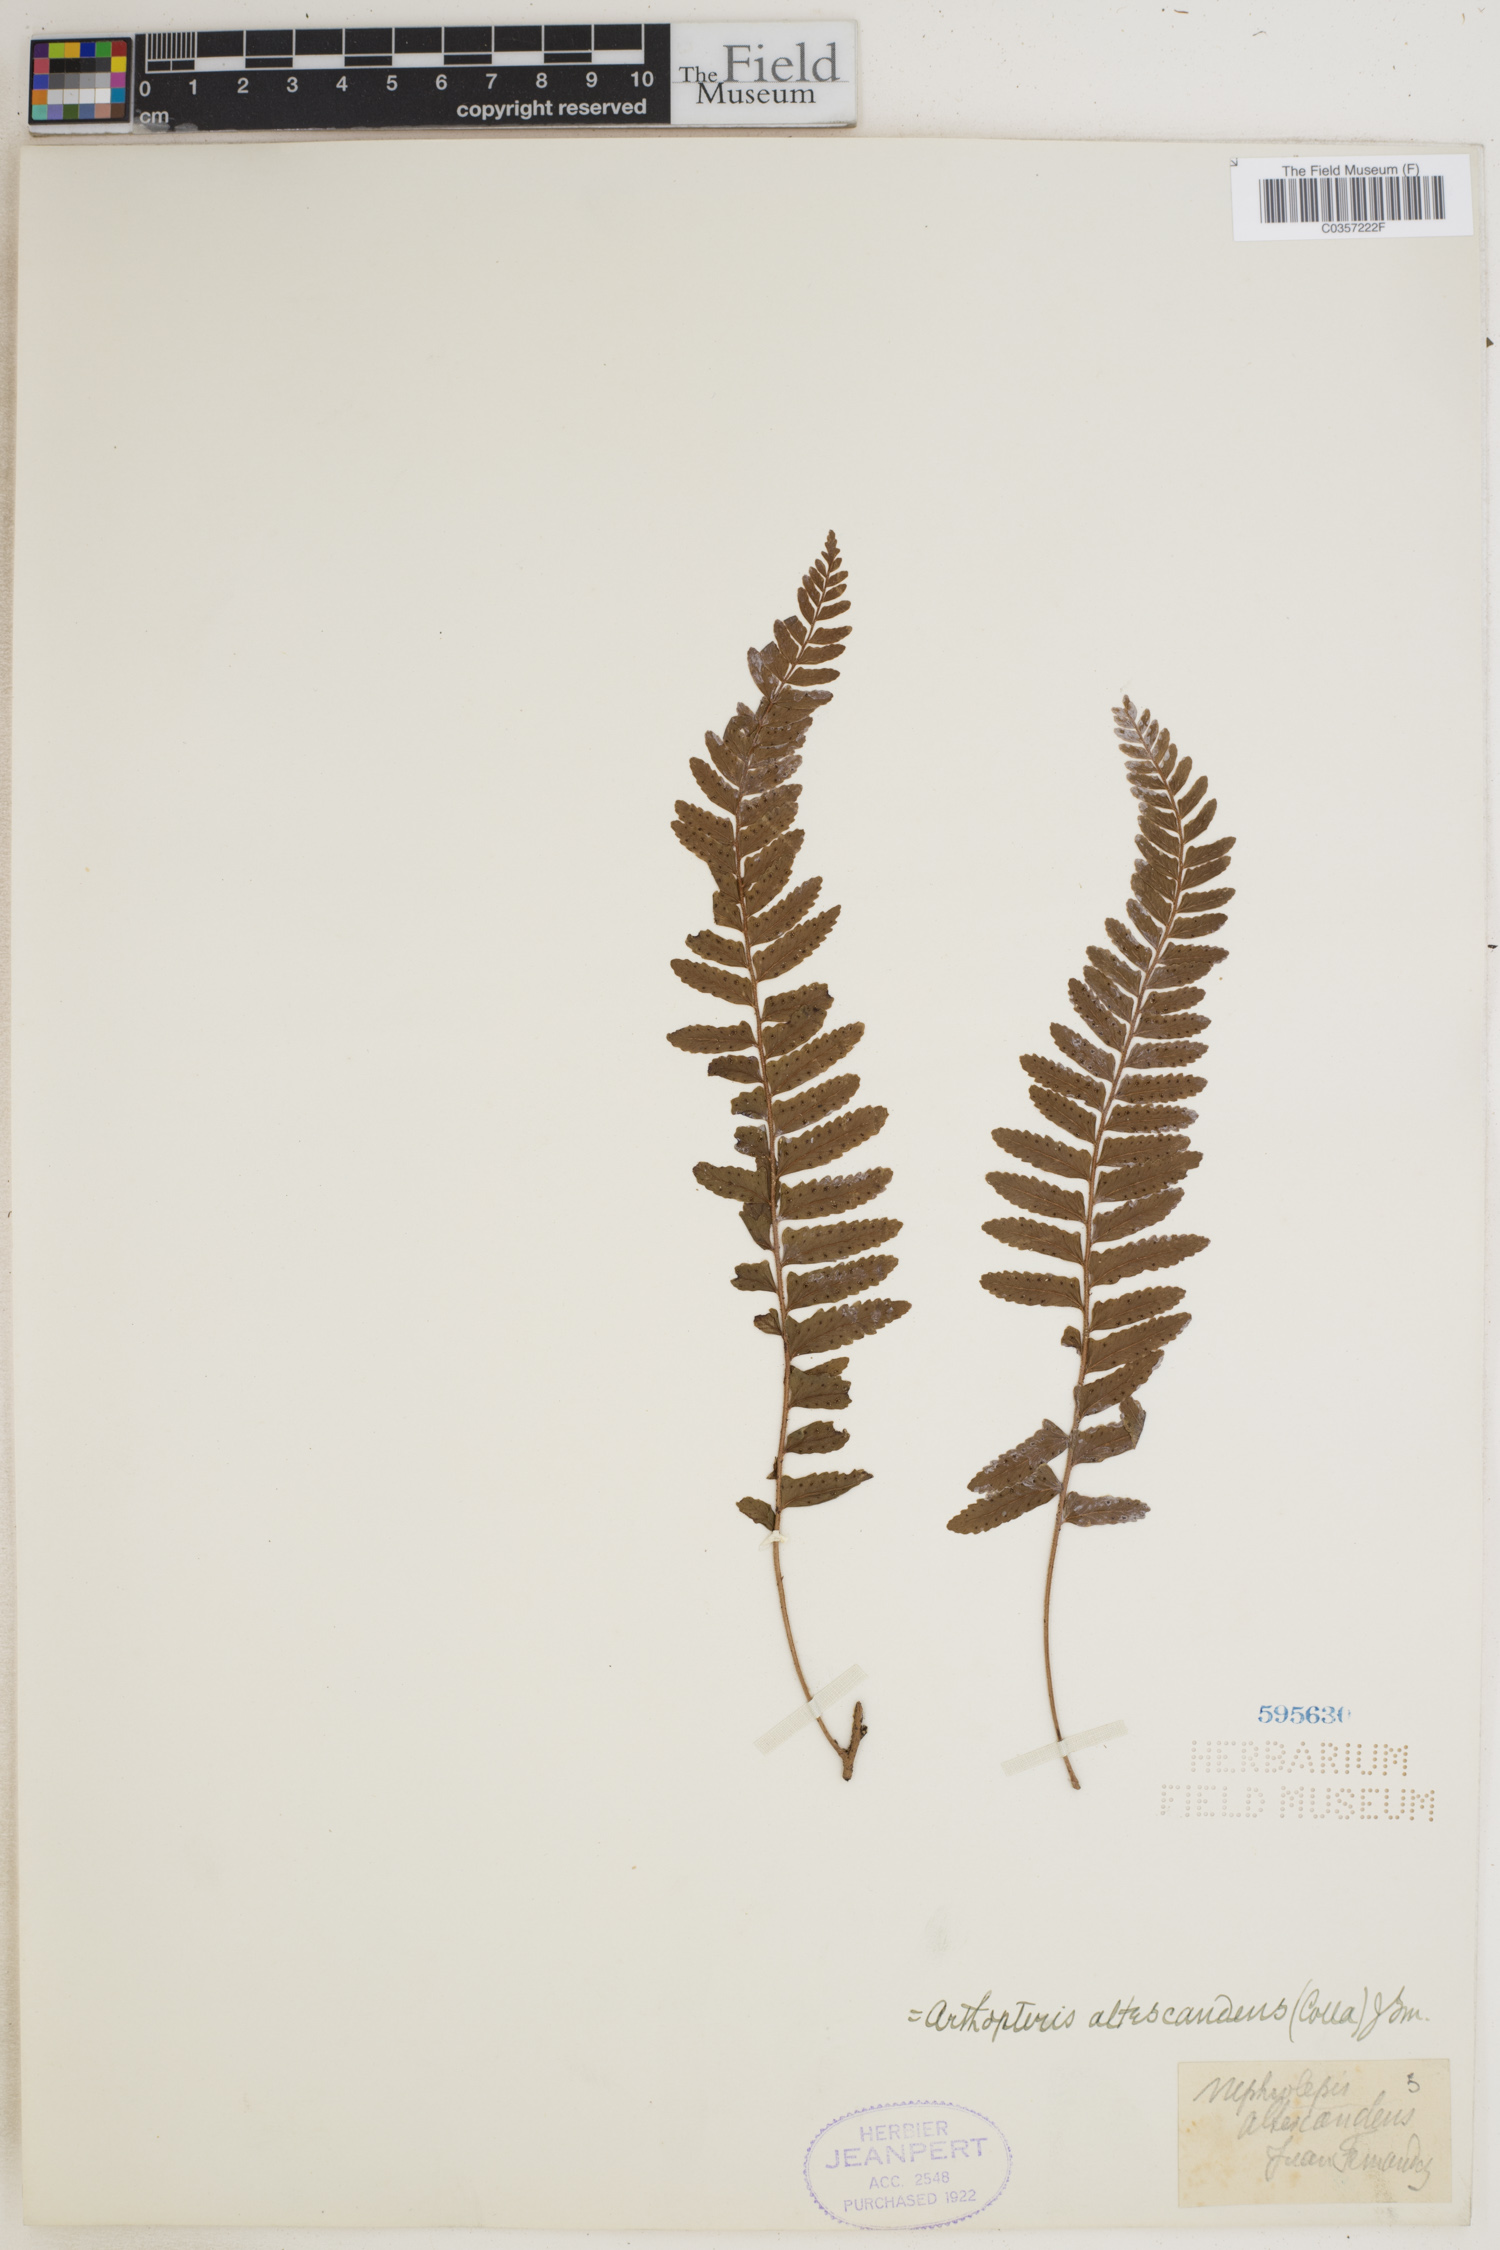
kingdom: Plantae
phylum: Tracheophyta
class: Polypodiopsida
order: Polypodiales
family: Tectariaceae
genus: Arthropteris
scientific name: Arthropteris altescandens
